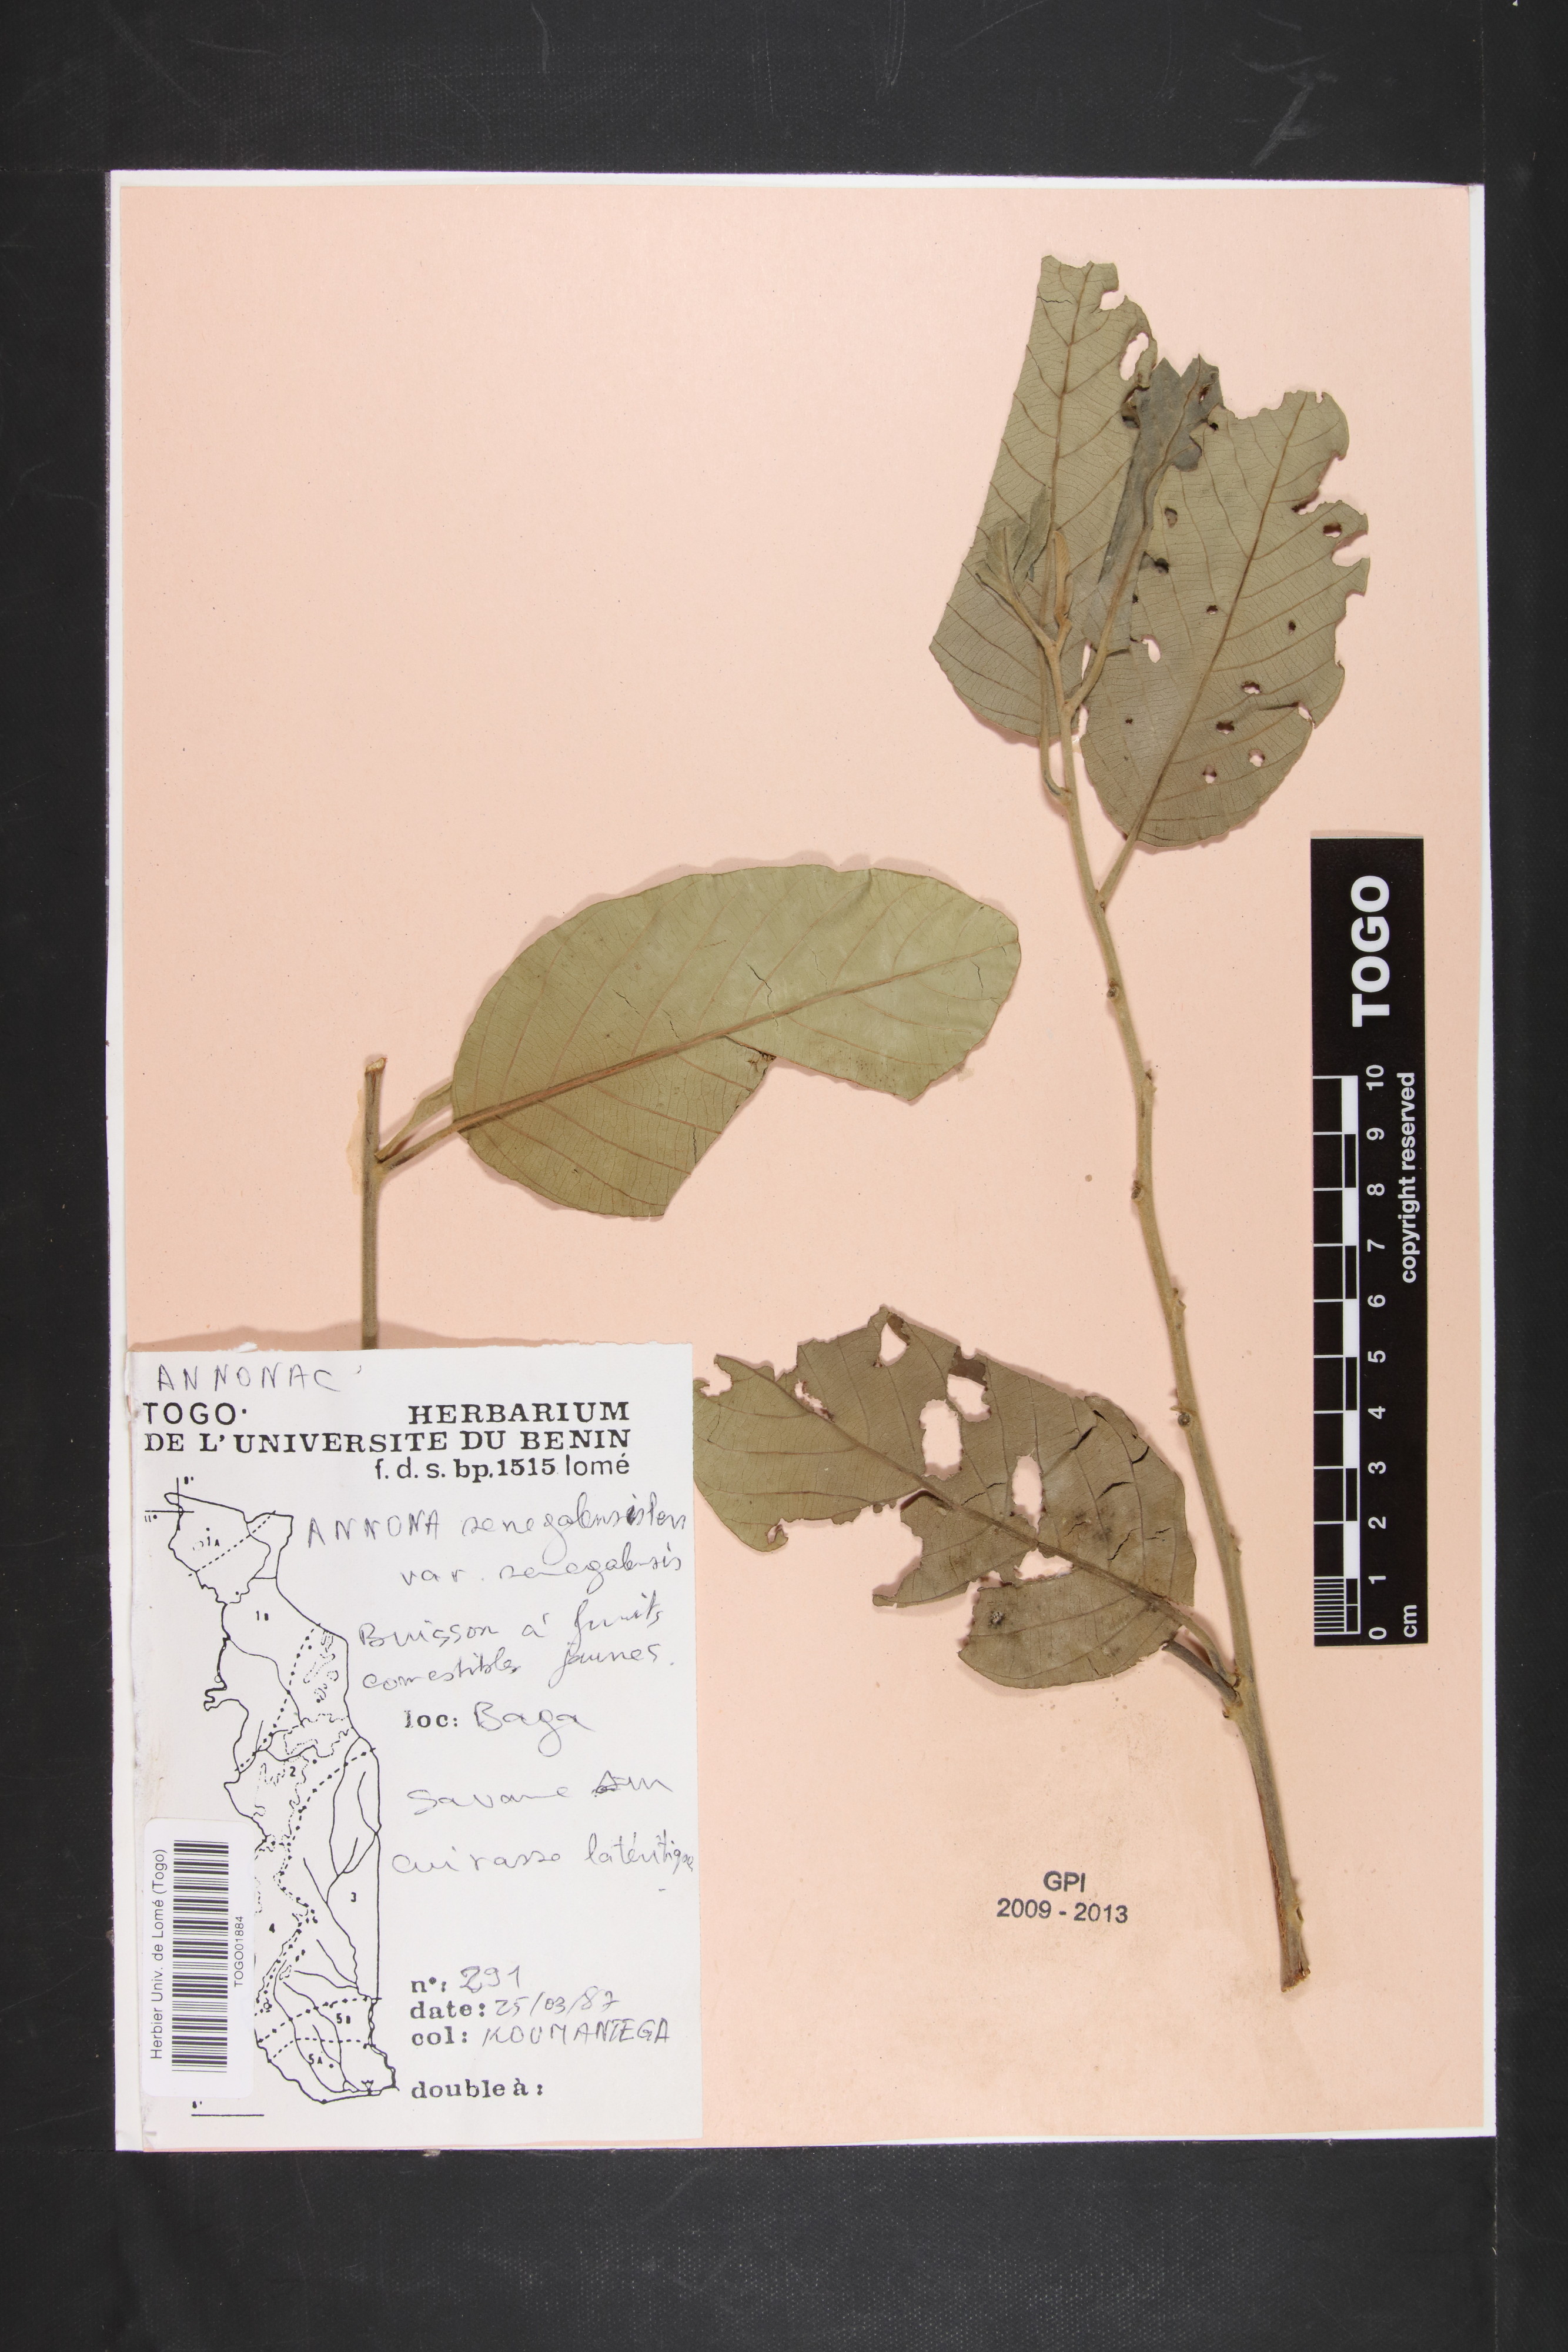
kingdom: Plantae
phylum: Tracheophyta
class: Magnoliopsida
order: Magnoliales
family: Annonaceae
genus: Annona
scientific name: Annona senegalensis
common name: Wild custard-apple
